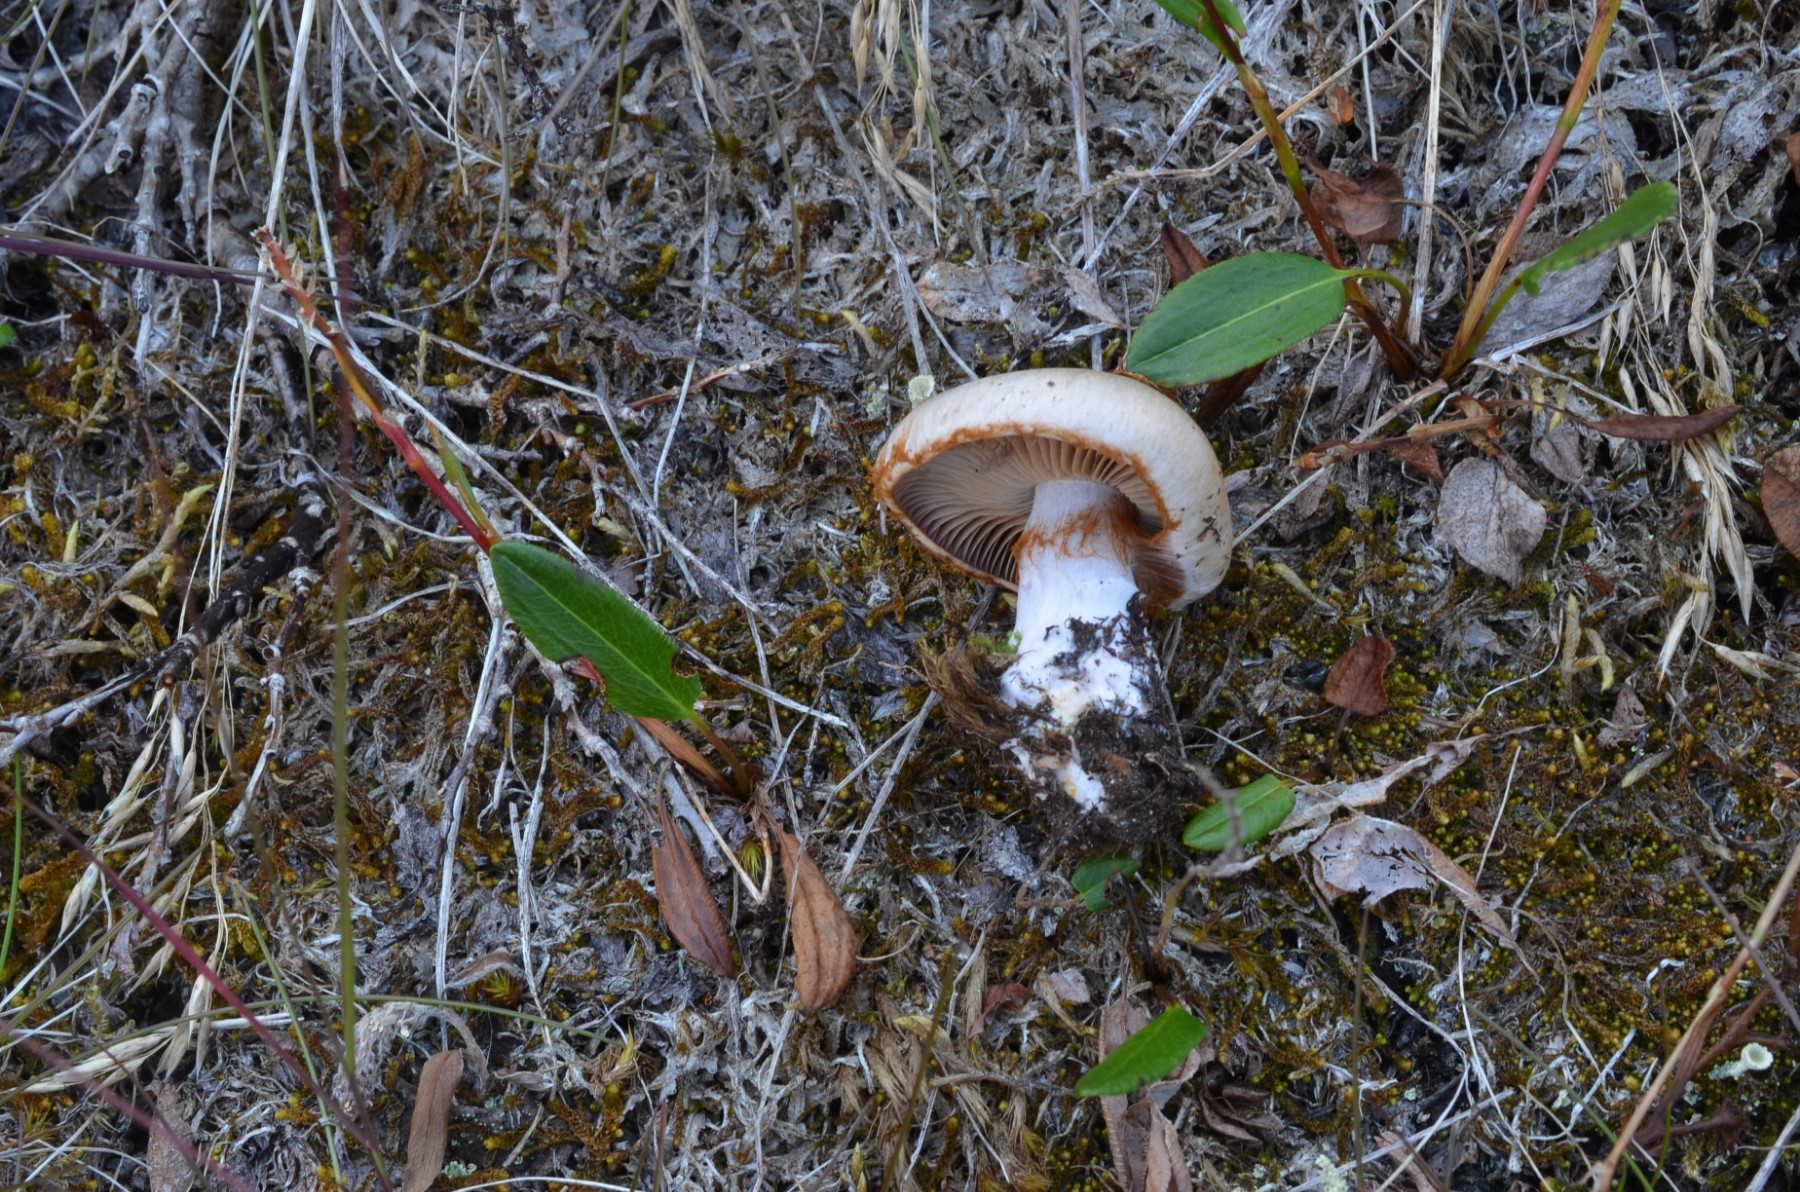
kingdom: Fungi
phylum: Basidiomycota
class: Agaricomycetes
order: Agaricales
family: Cortinariaceae
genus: Thaxterogaster
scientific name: Thaxterogaster porphyropus
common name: purpurstokket slørhat
